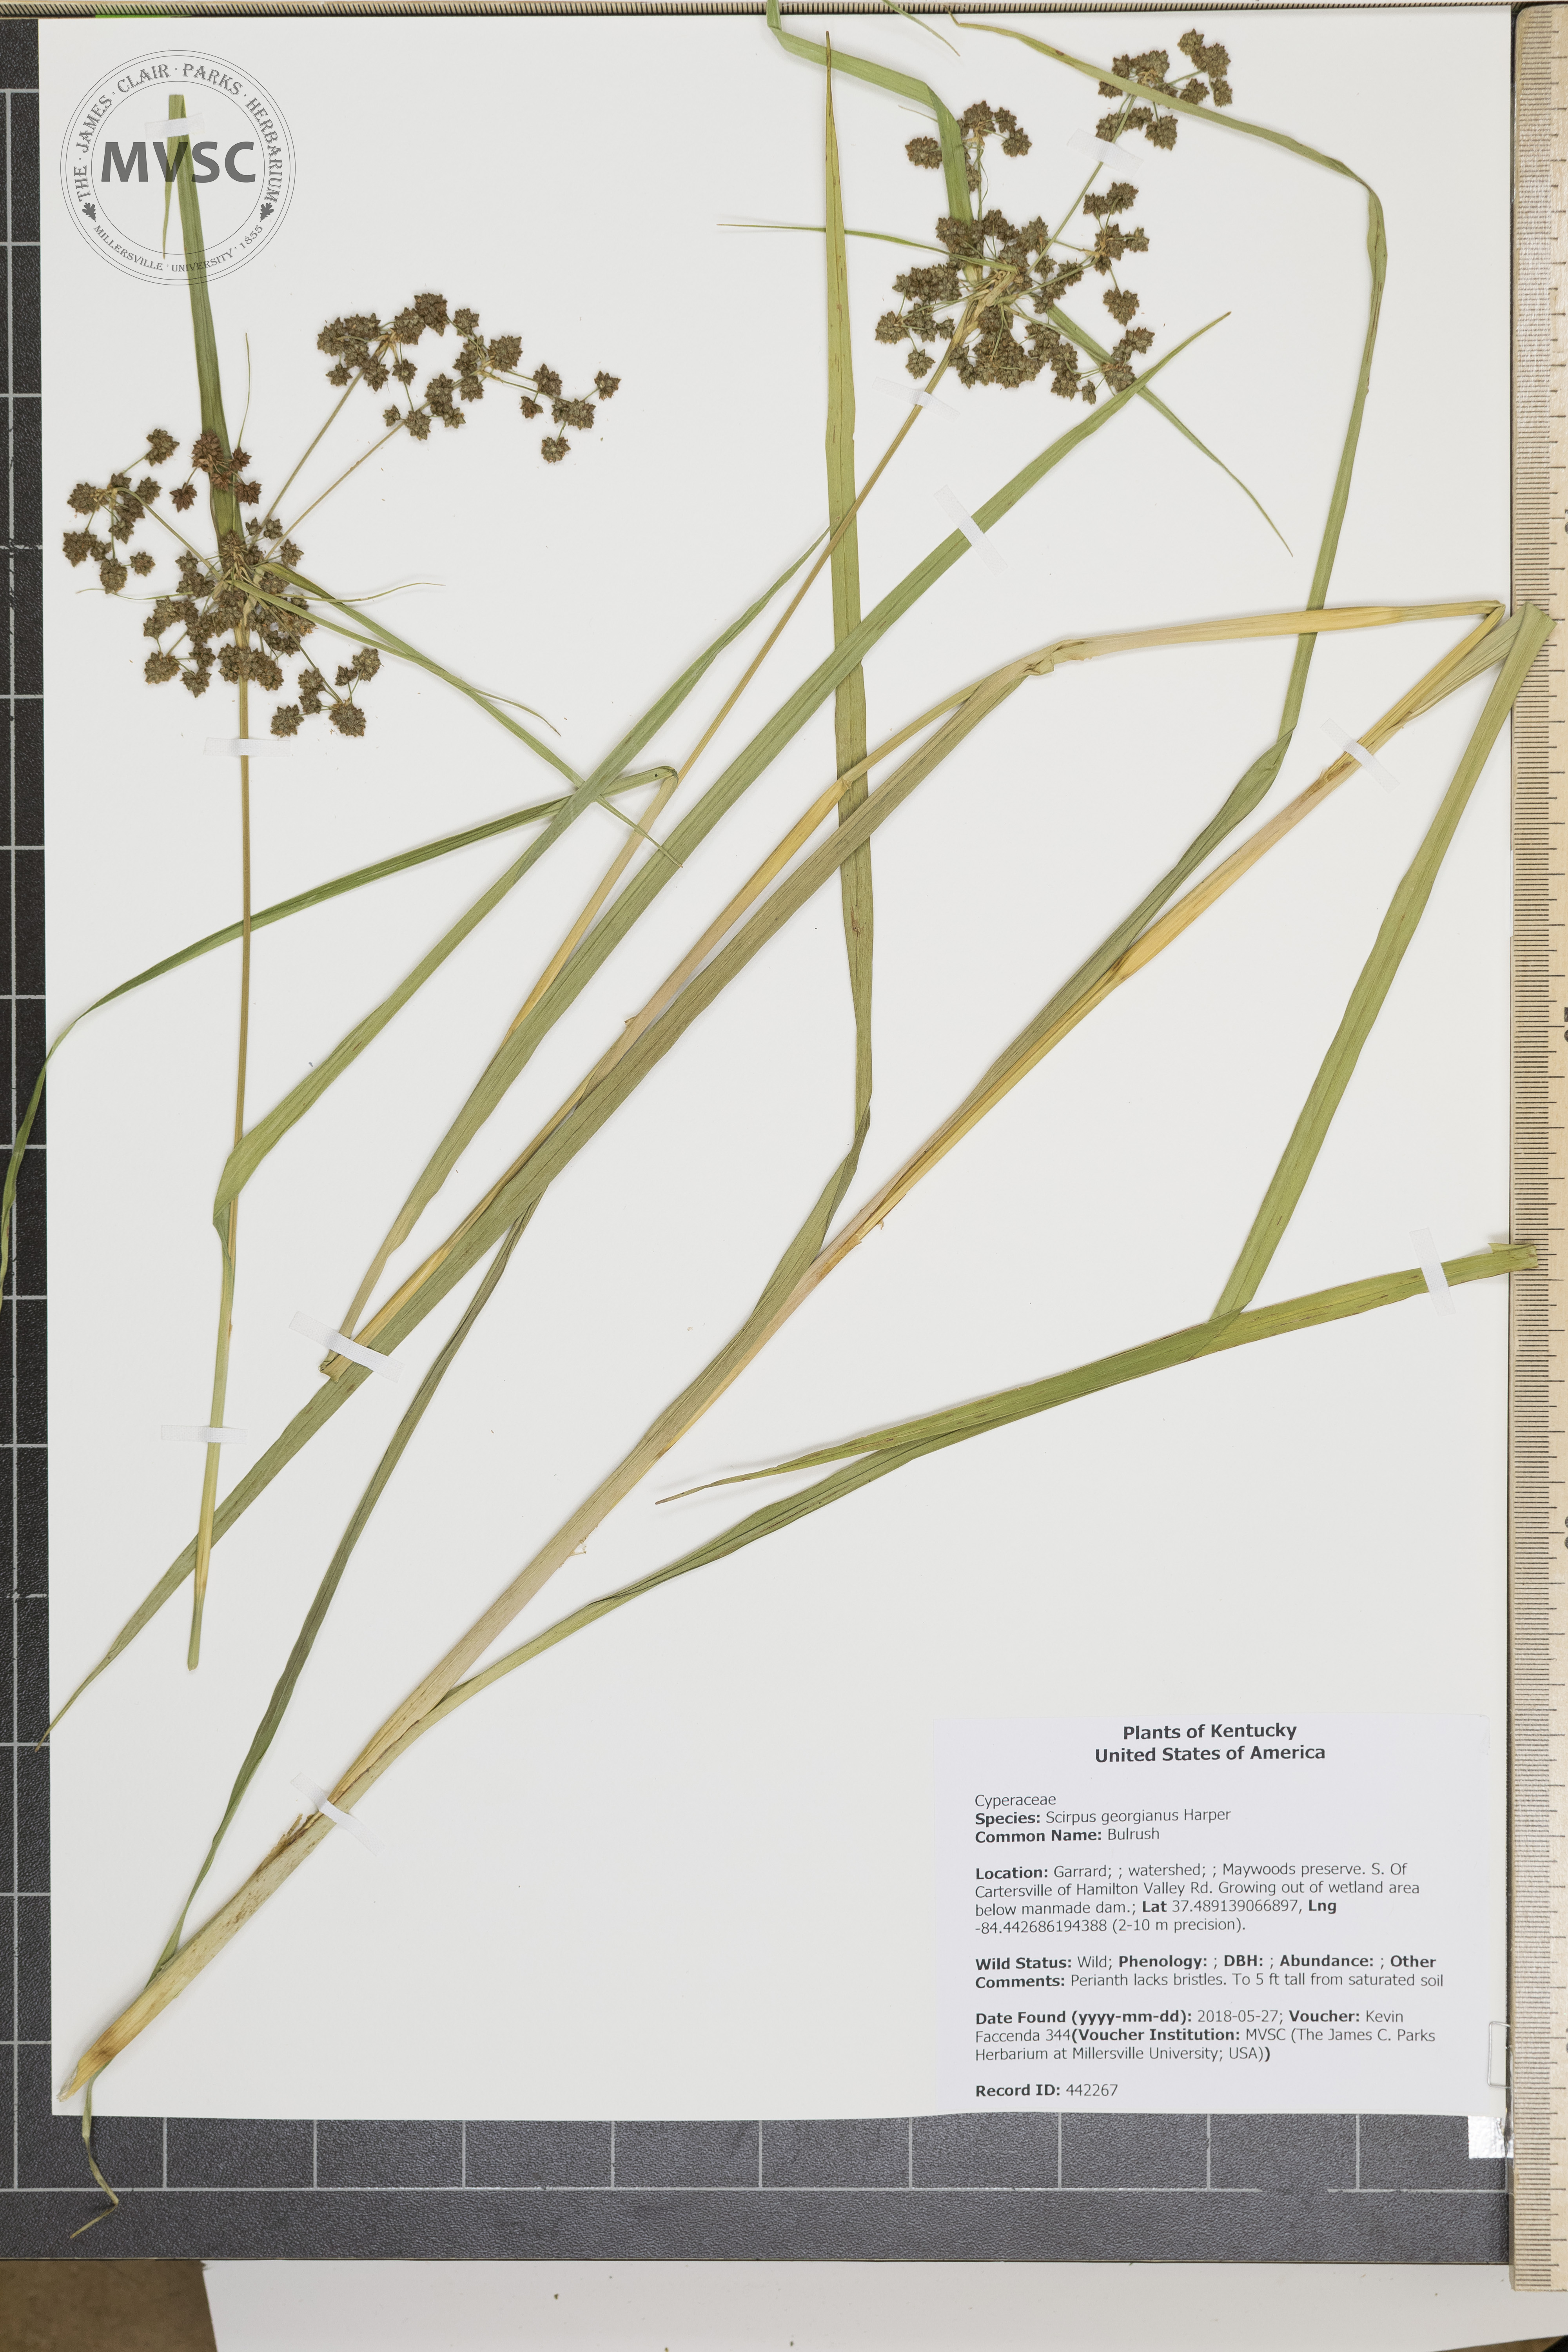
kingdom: Plantae
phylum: Tracheophyta
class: Liliopsida
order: Poales
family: Cyperaceae
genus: Scirpus
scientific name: Scirpus georgianus
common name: Bulrush
